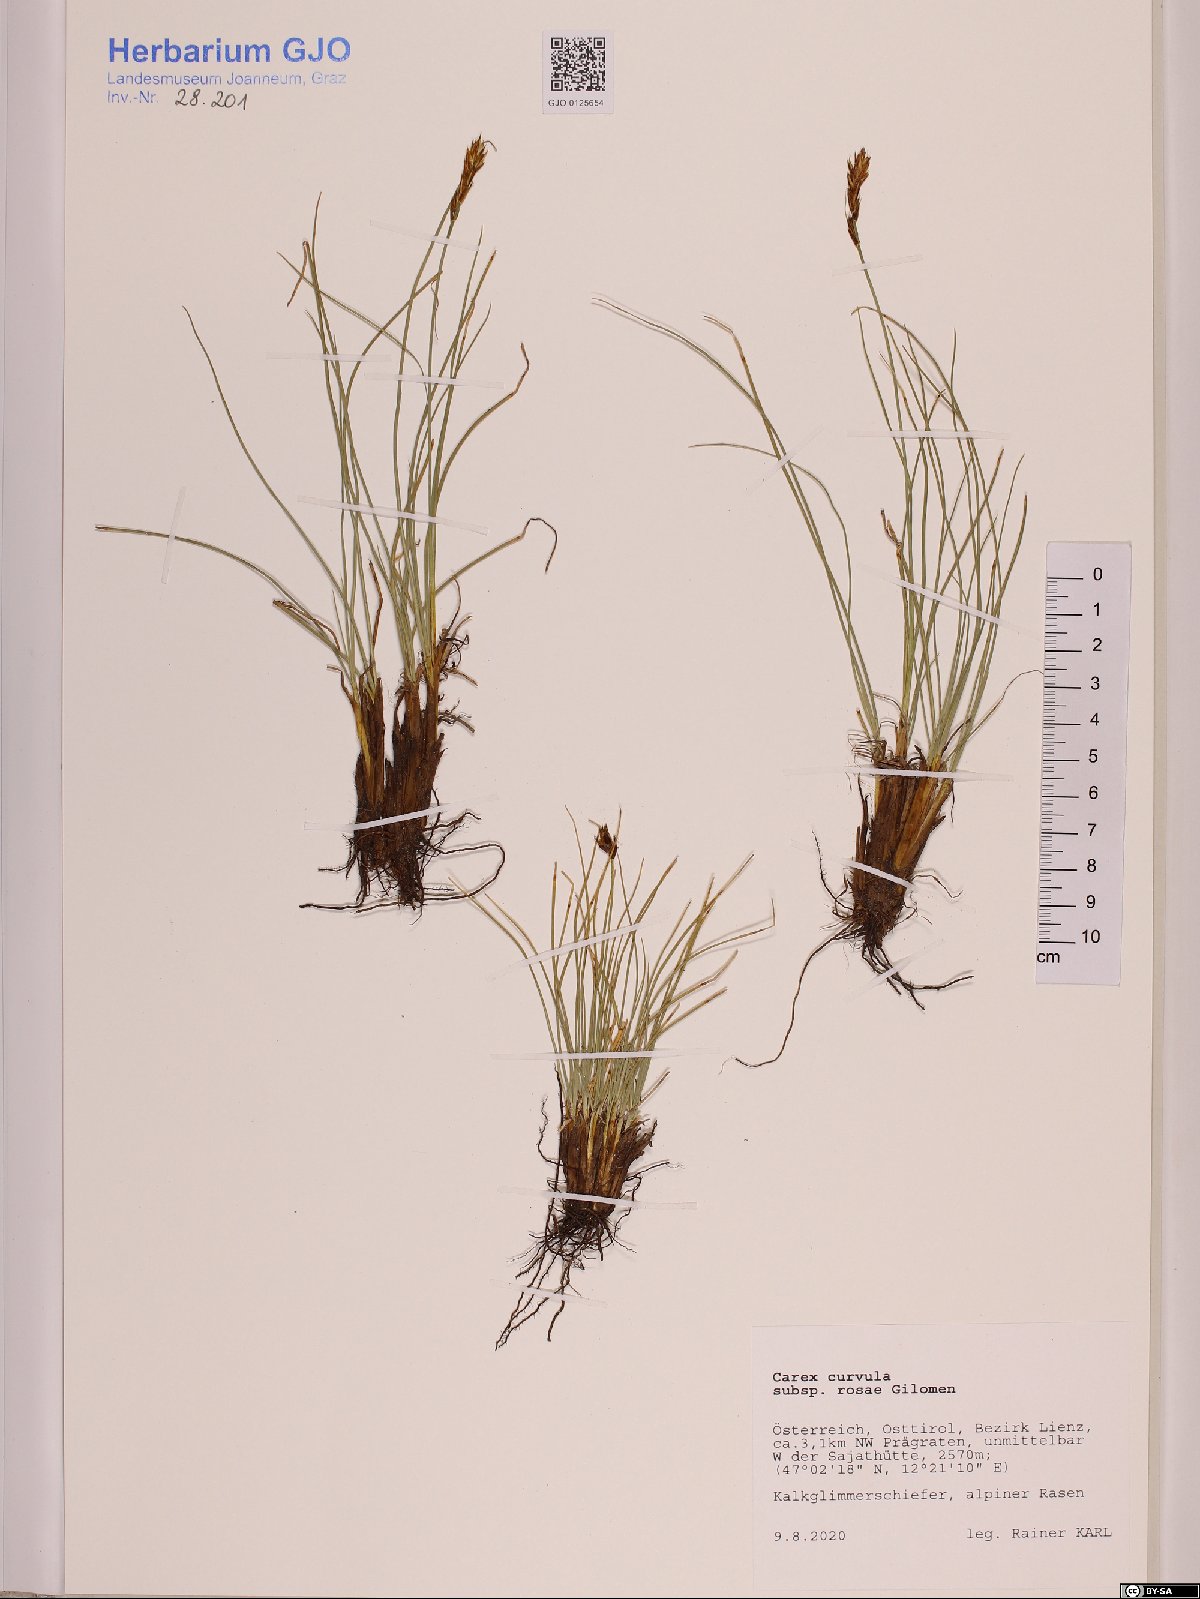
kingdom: Plantae
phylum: Tracheophyta
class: Liliopsida
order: Poales
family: Cyperaceae
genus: Carex
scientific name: Carex curvula
